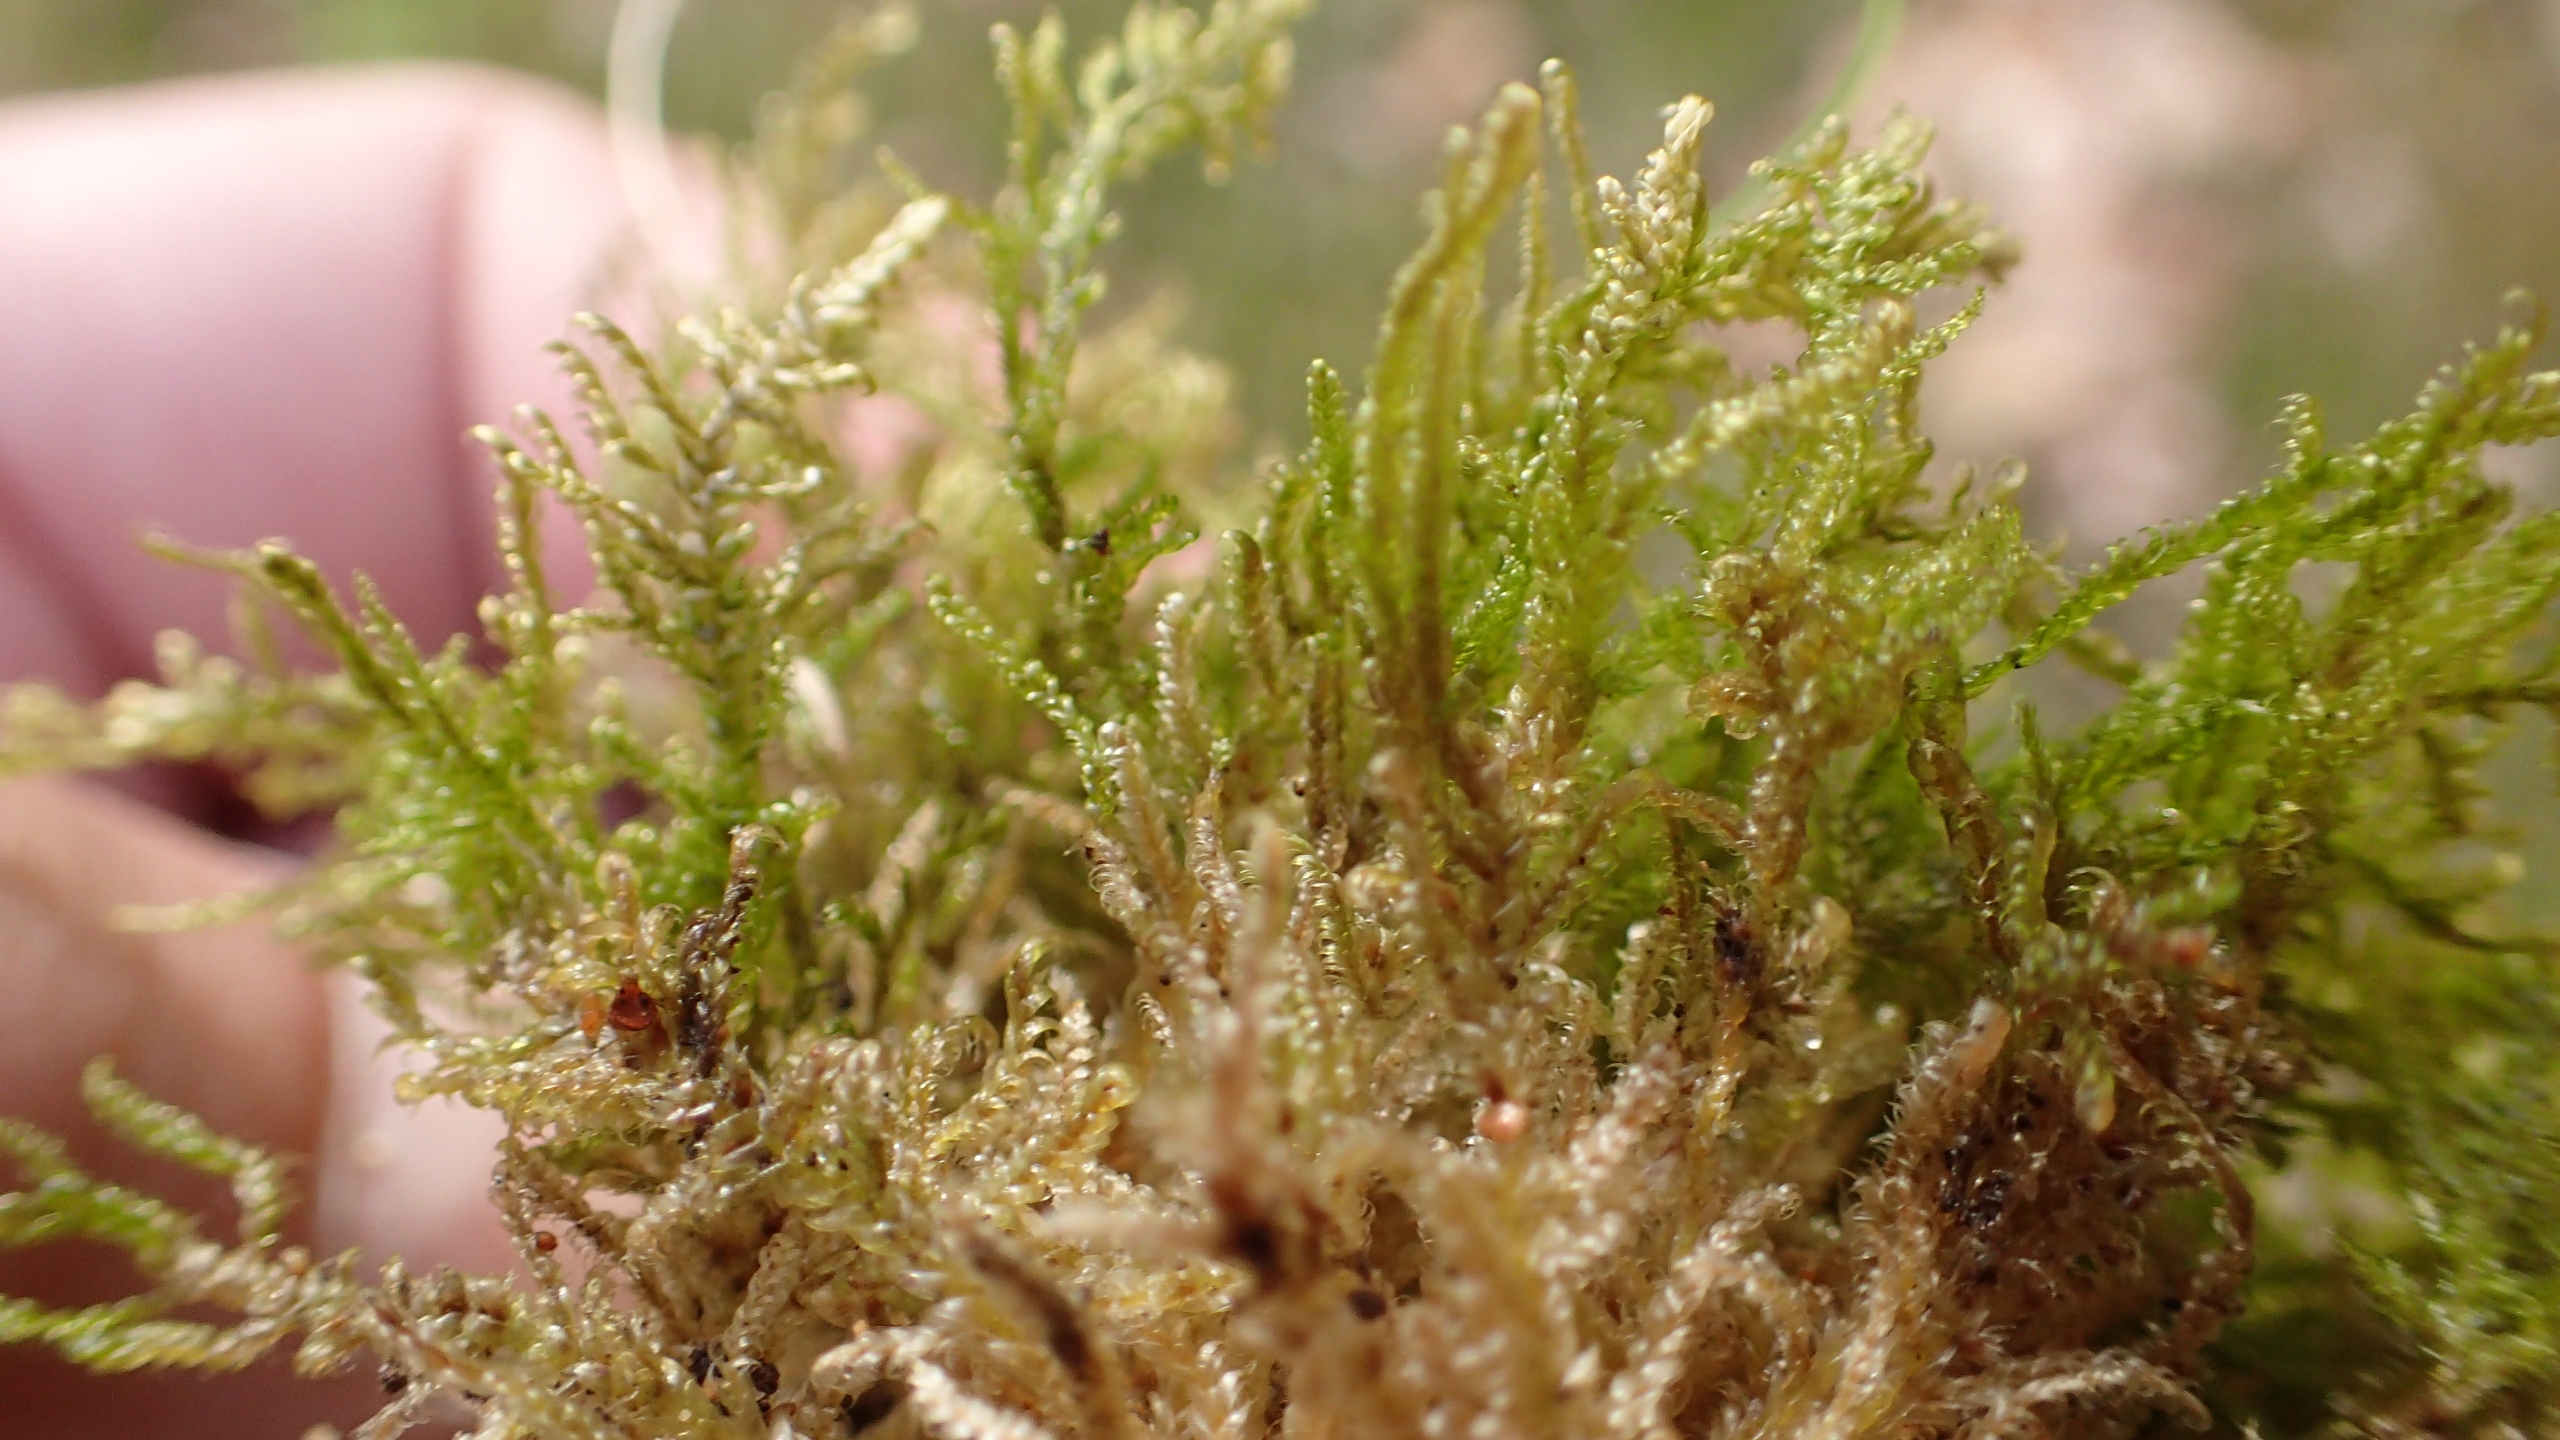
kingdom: Plantae
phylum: Bryophyta
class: Bryopsida
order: Hypnales
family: Hypnaceae
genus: Hypnum
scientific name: Hypnum
